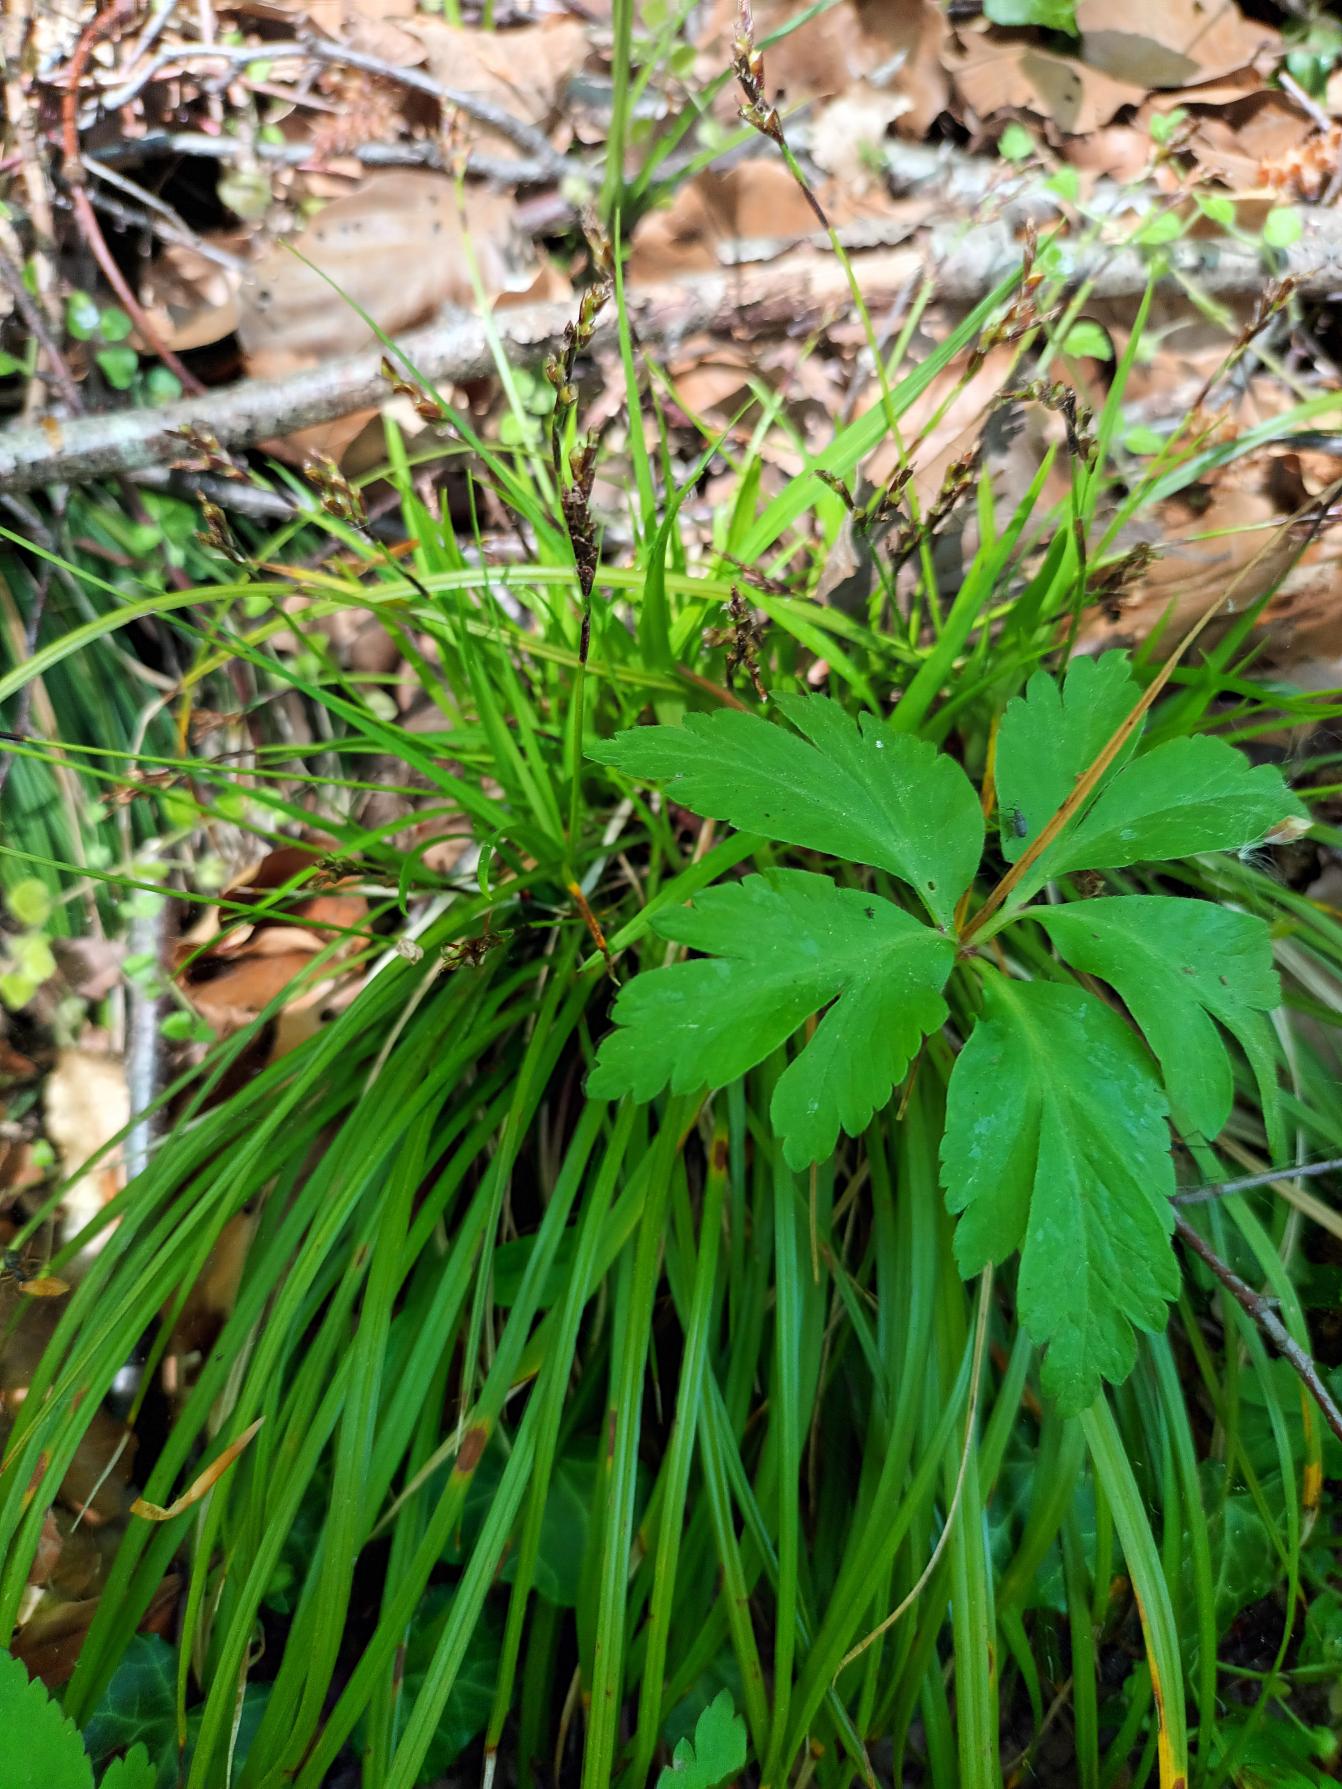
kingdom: Plantae
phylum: Tracheophyta
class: Liliopsida
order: Poales
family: Cyperaceae
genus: Carex
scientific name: Carex digitata
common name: Finger-star
